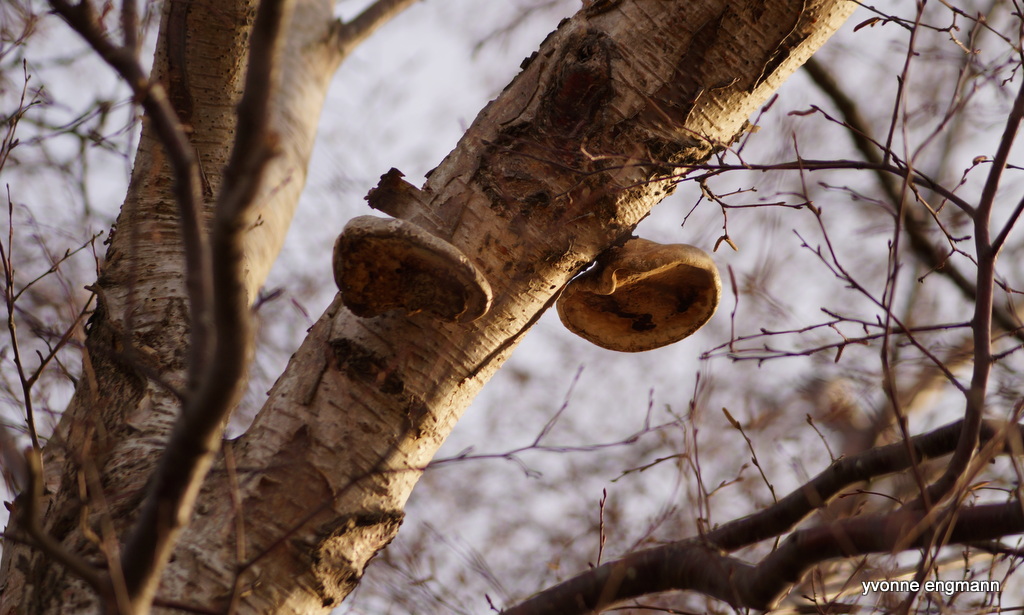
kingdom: Fungi
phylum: Basidiomycota
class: Agaricomycetes
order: Polyporales
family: Fomitopsidaceae
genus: Fomitopsis
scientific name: Fomitopsis betulina
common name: birkeporesvamp
